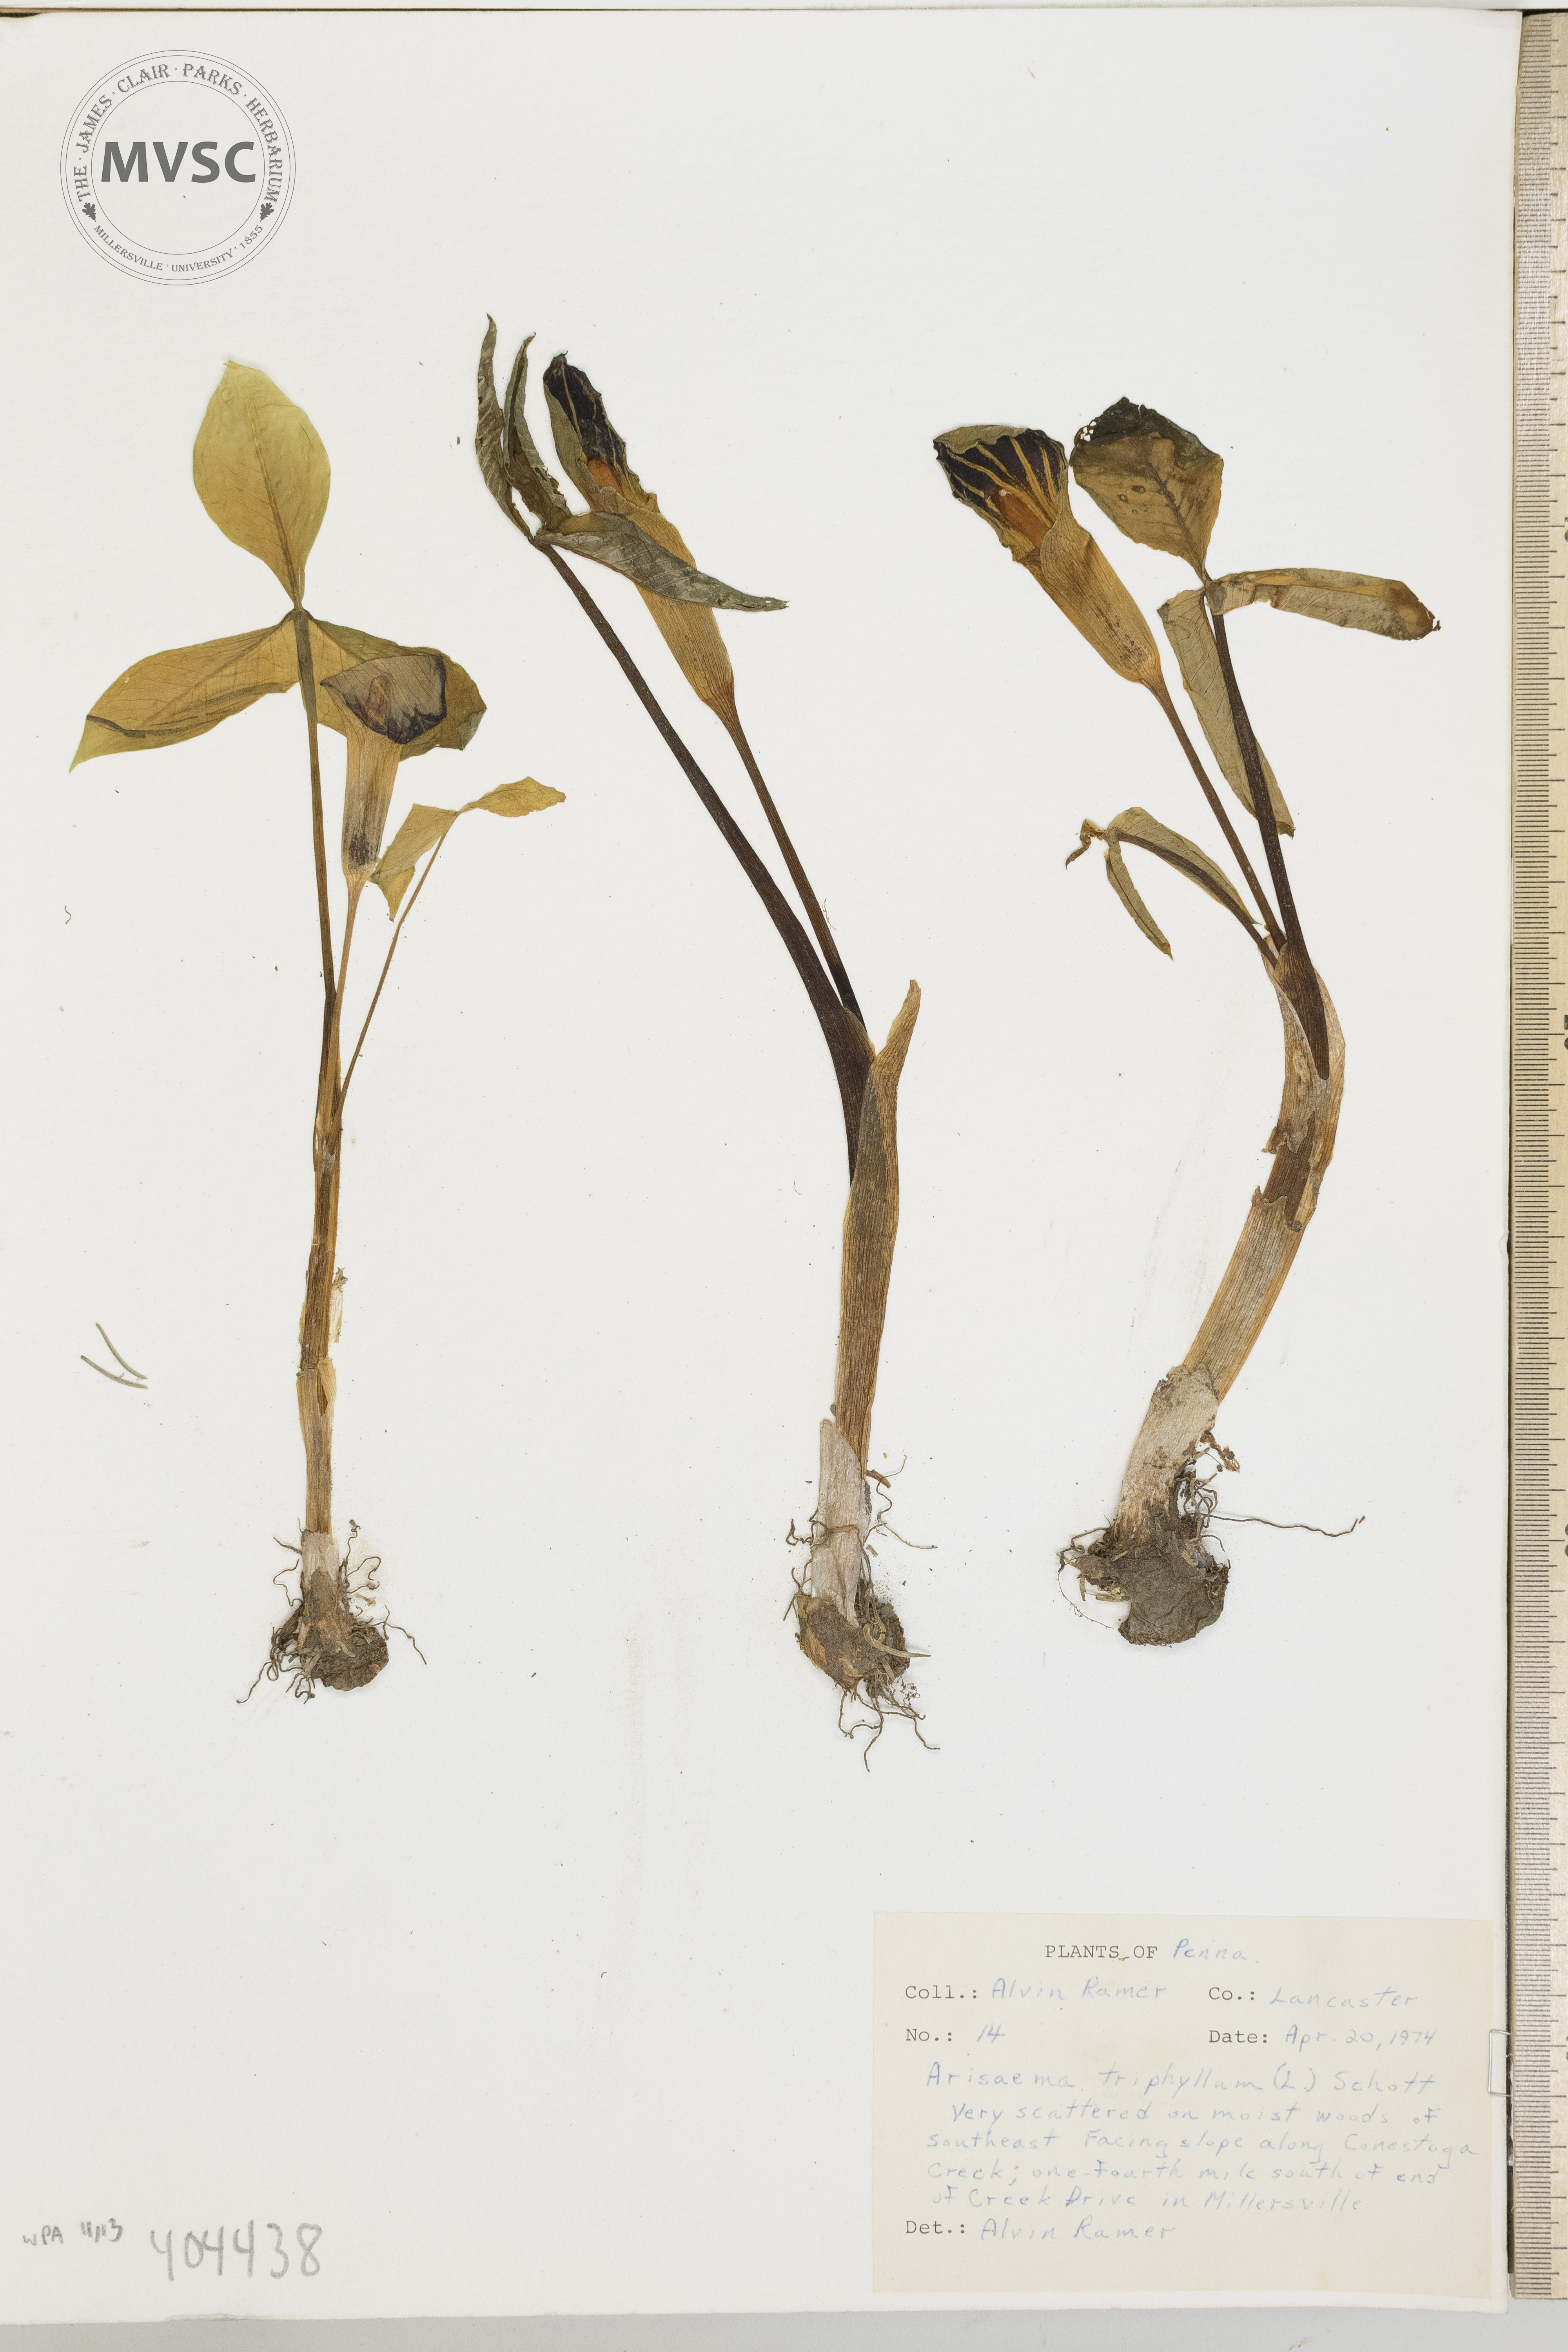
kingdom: Plantae
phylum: Tracheophyta
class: Liliopsida
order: Alismatales
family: Araceae
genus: Arisaema
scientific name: Arisaema triphyllum
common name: Jack-in-the-pulpit
